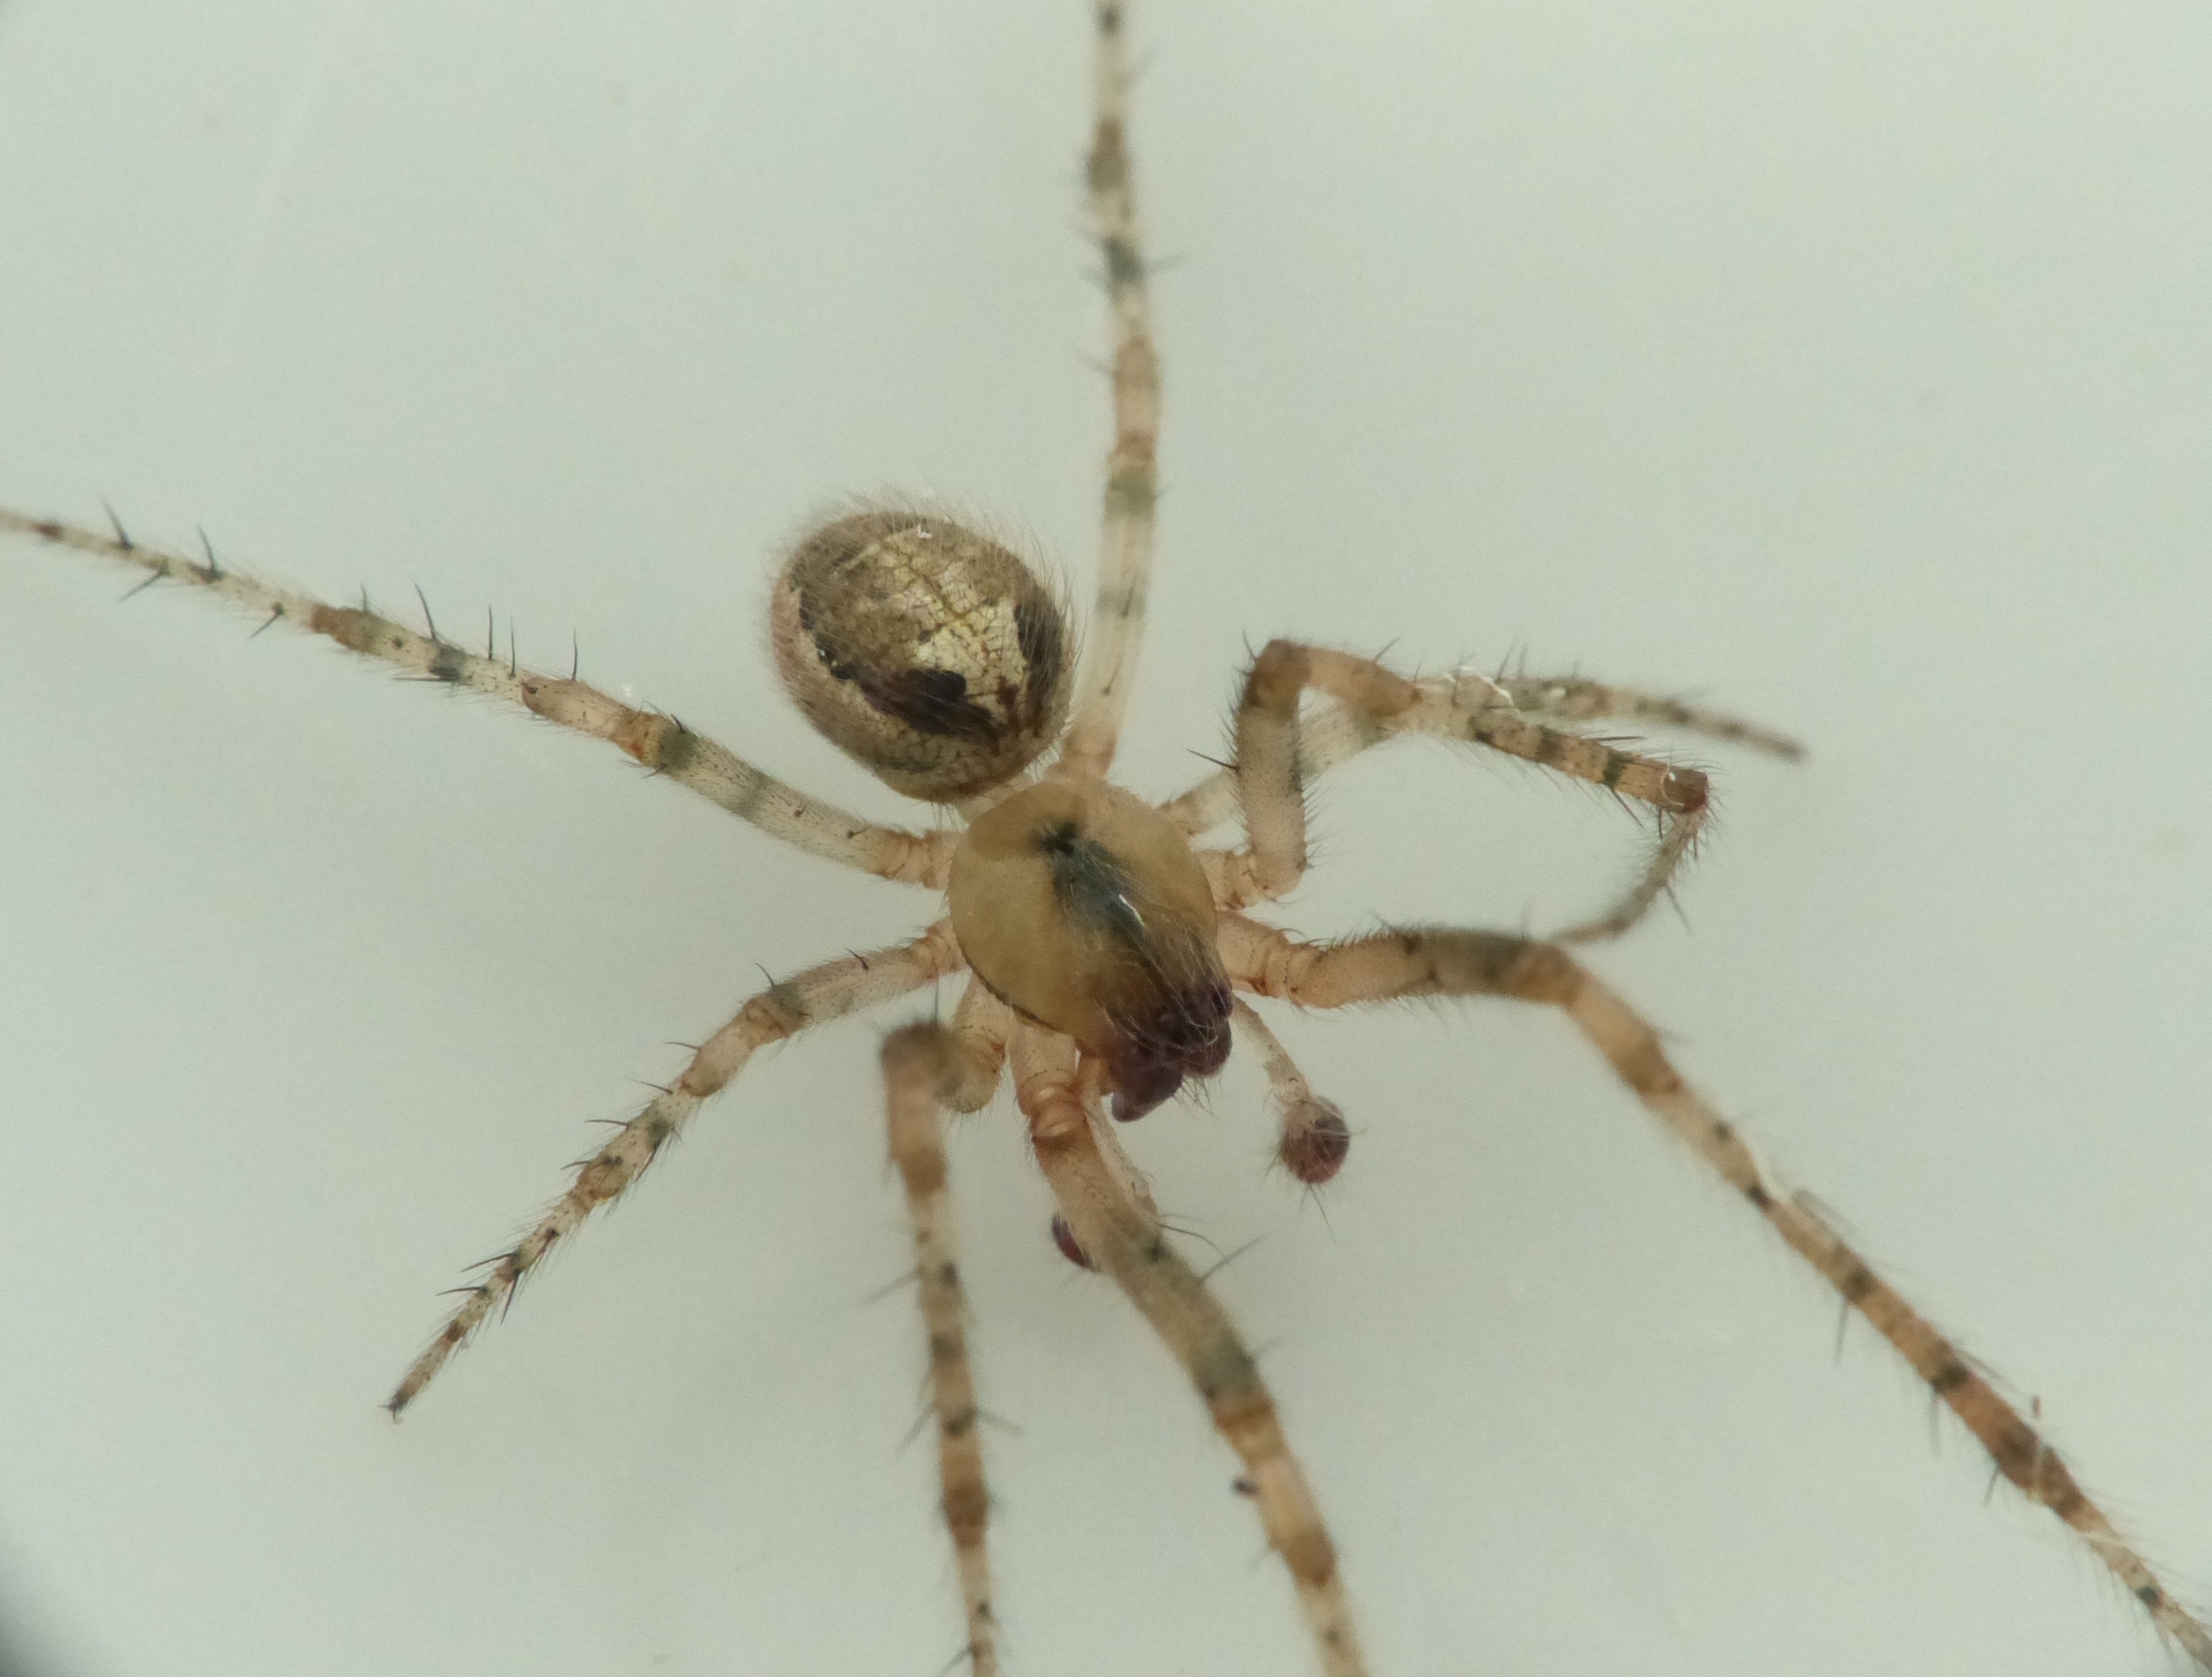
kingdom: Animalia
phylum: Arthropoda
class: Arachnida
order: Araneae
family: Araneidae
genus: Zygiella
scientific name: Zygiella x-notata
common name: Grå sektoredderkop
